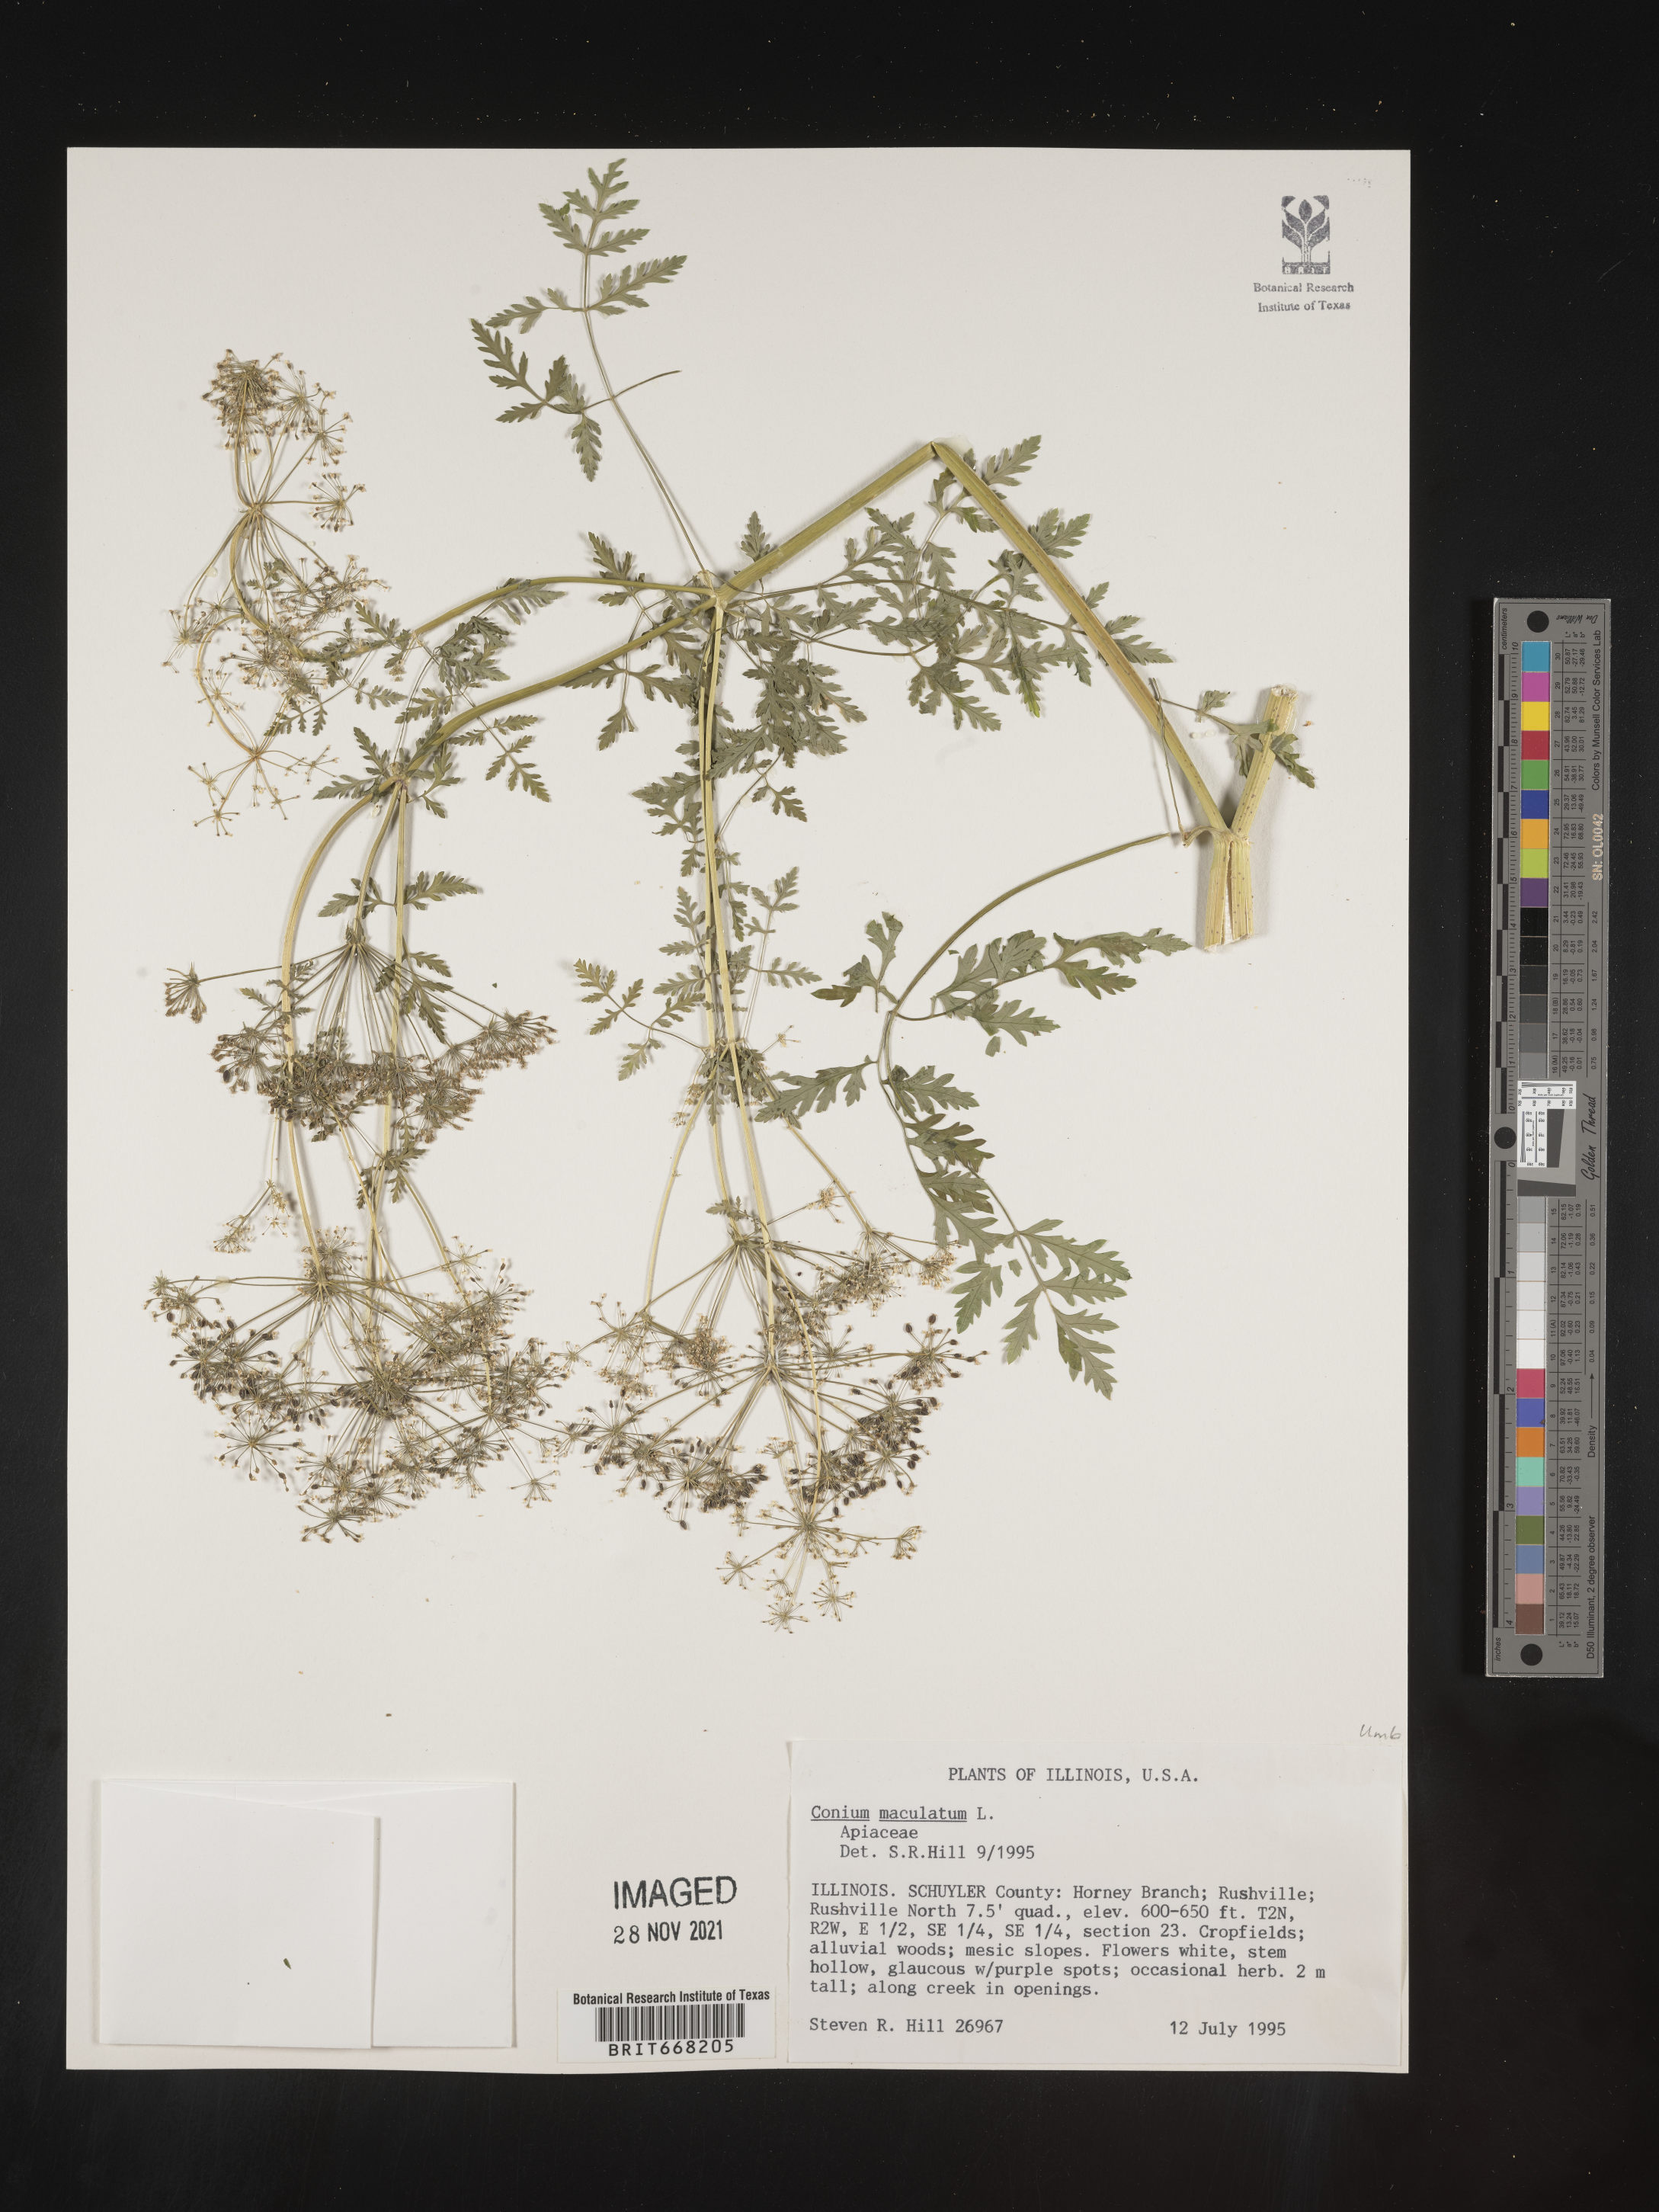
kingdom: Plantae
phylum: Tracheophyta
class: Magnoliopsida
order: Apiales
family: Apiaceae
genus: Conium
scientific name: Conium maculatum
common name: Hemlock
